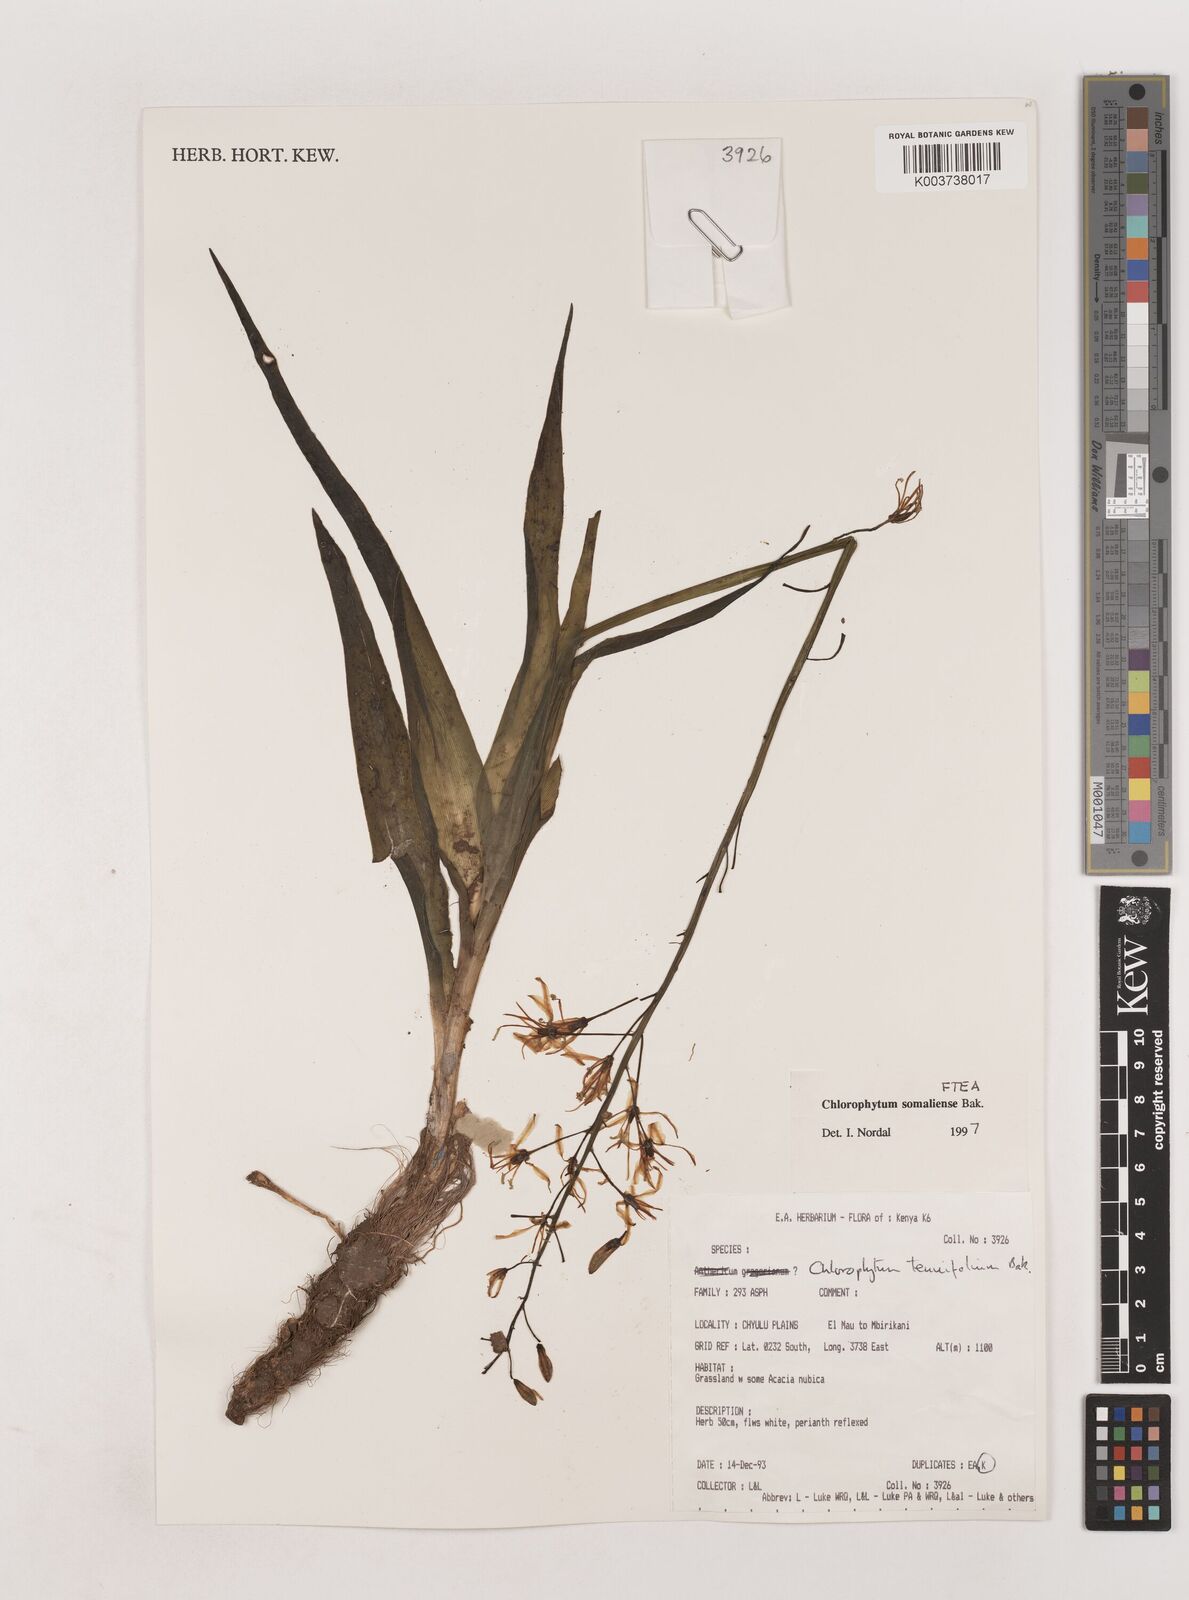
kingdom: Plantae
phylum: Tracheophyta
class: Liliopsida
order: Asparagales
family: Asparagaceae
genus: Chlorophytum
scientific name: Chlorophytum somaliense
